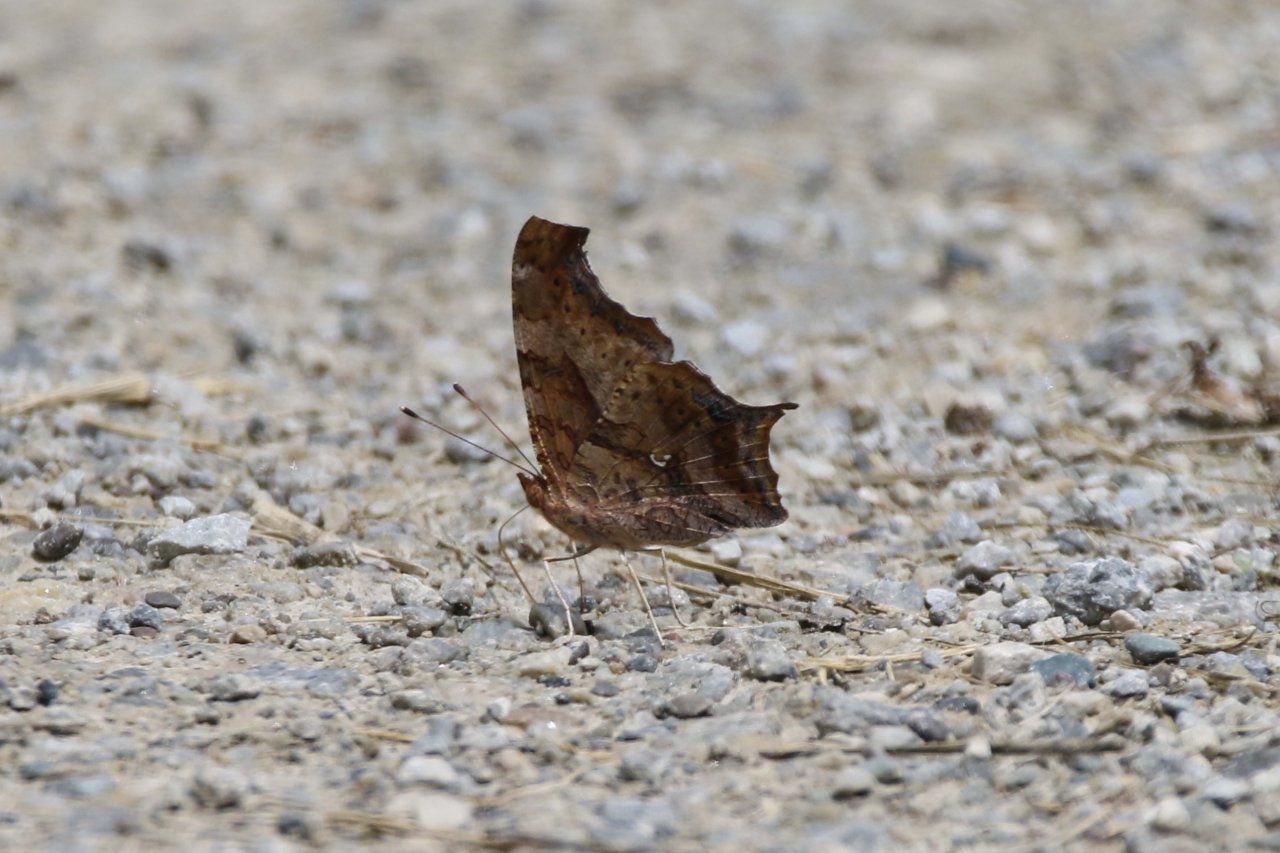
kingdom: Animalia
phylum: Arthropoda
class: Insecta
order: Lepidoptera
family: Nymphalidae
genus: Polygonia
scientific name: Polygonia interrogationis
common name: Question Mark
